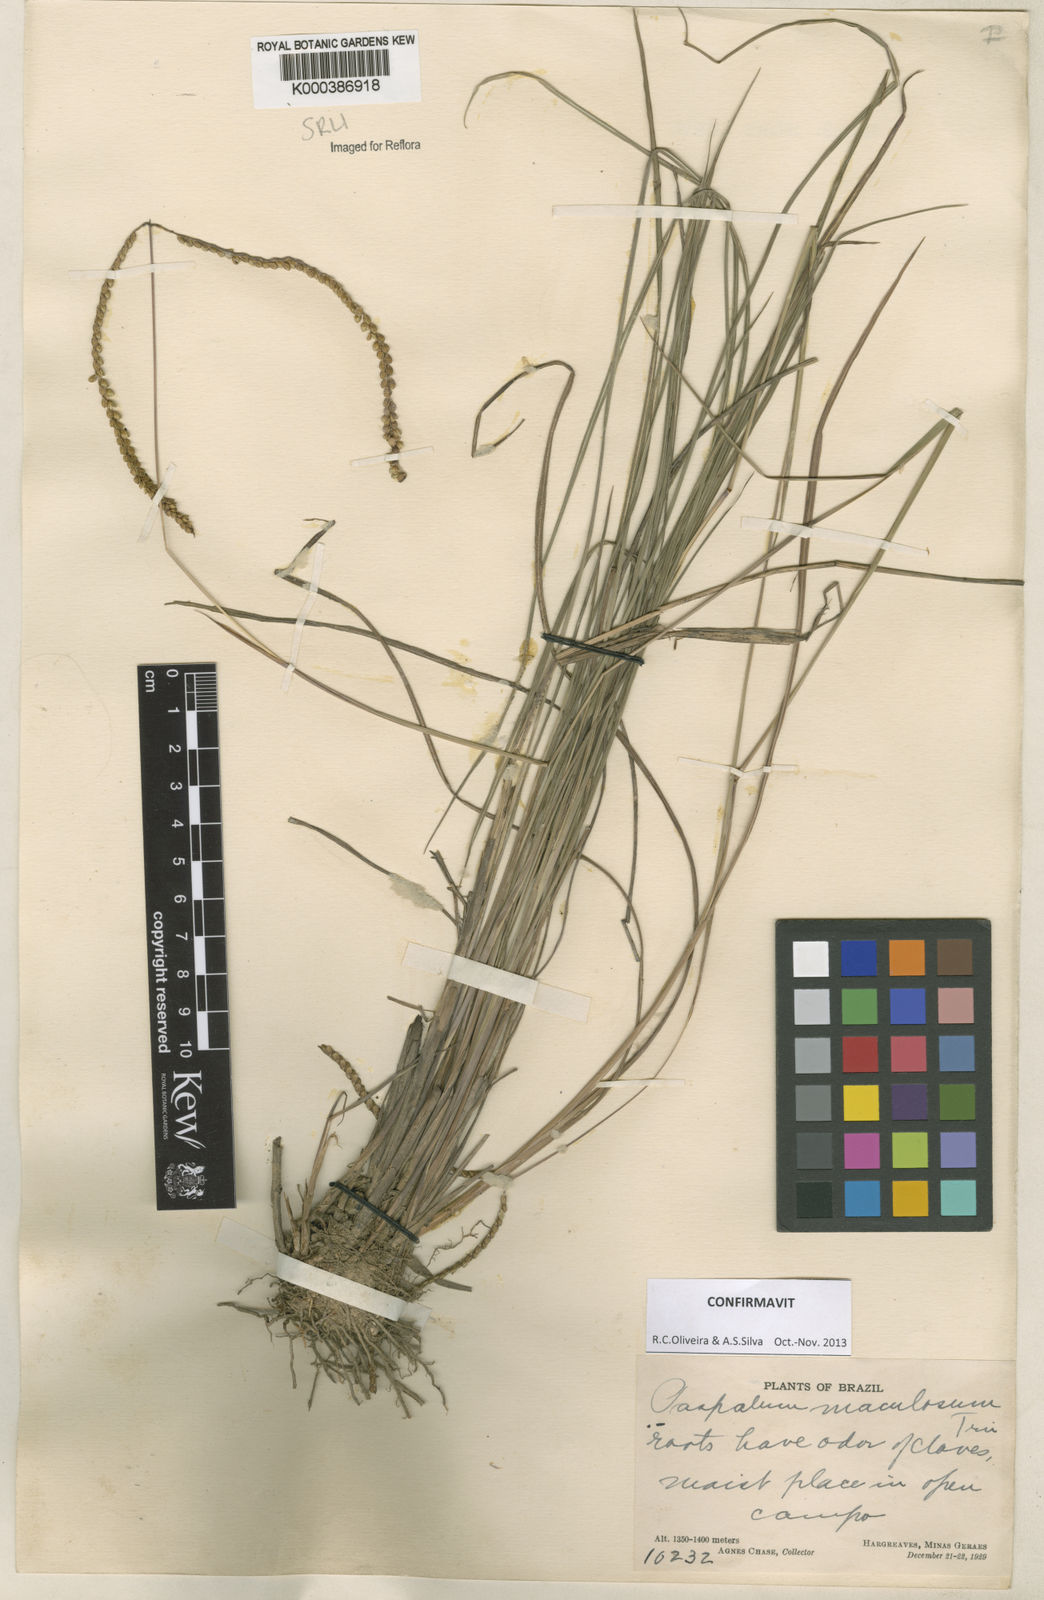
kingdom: Plantae
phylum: Tracheophyta
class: Liliopsida
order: Poales
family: Poaceae
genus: Paspalum
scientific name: Paspalum maculosum
